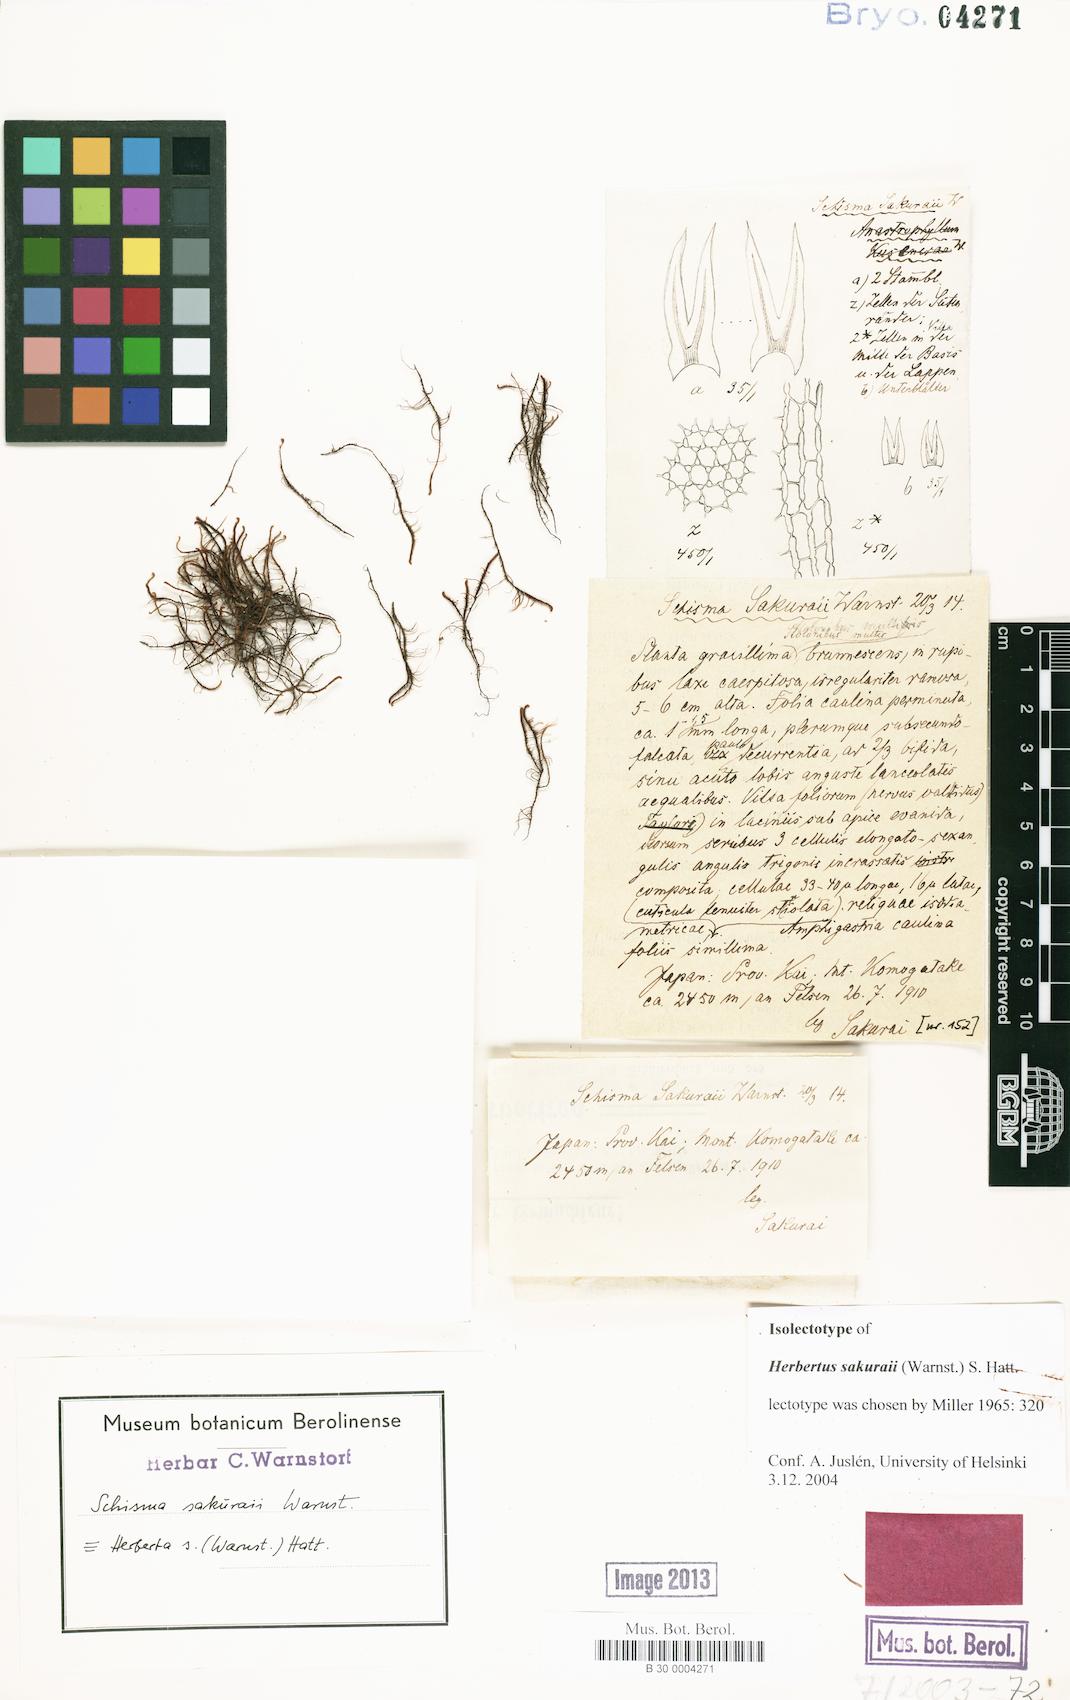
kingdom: Plantae
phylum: Marchantiophyta
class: Jungermanniopsida
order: Jungermanniales
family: Herbertaceae
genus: Herbertus
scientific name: Herbertus dicranus
